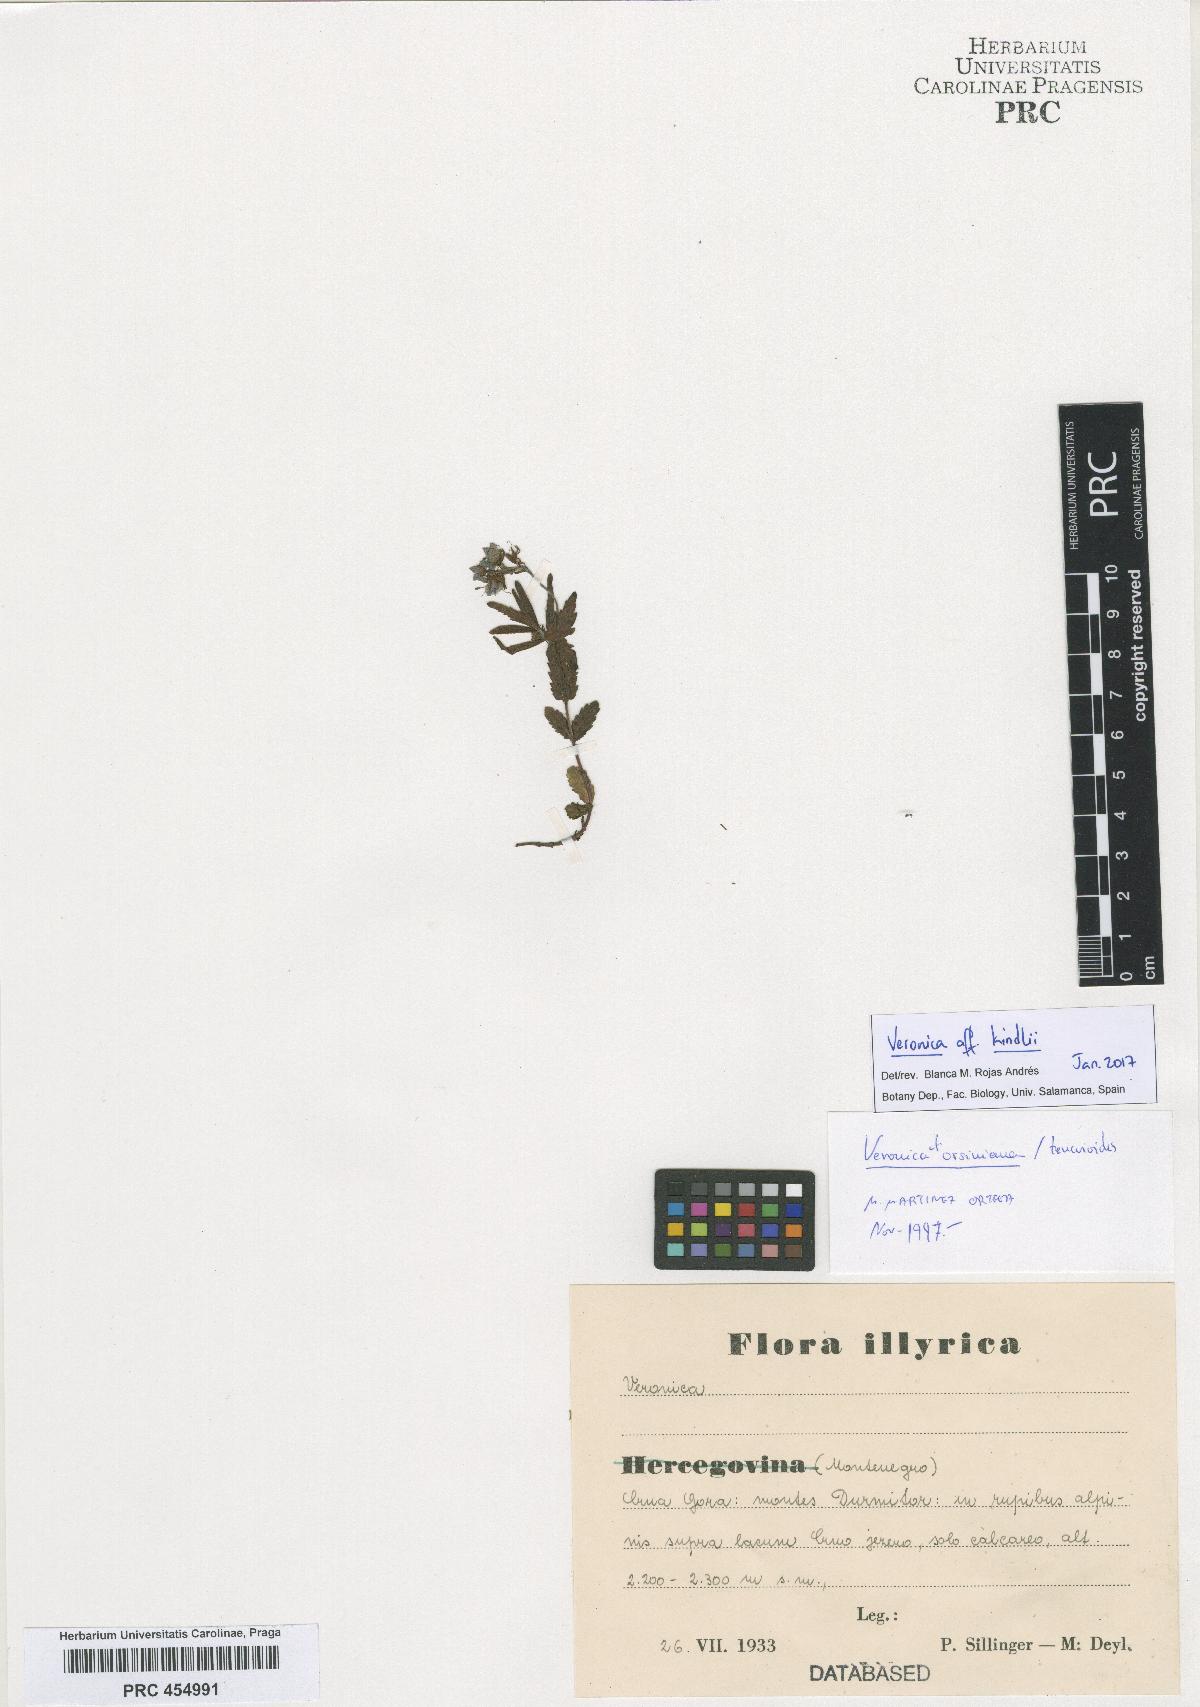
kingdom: Plantae
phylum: Tracheophyta
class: Magnoliopsida
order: Lamiales
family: Plantaginaceae
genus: Veronica
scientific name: Veronica orsiniana
